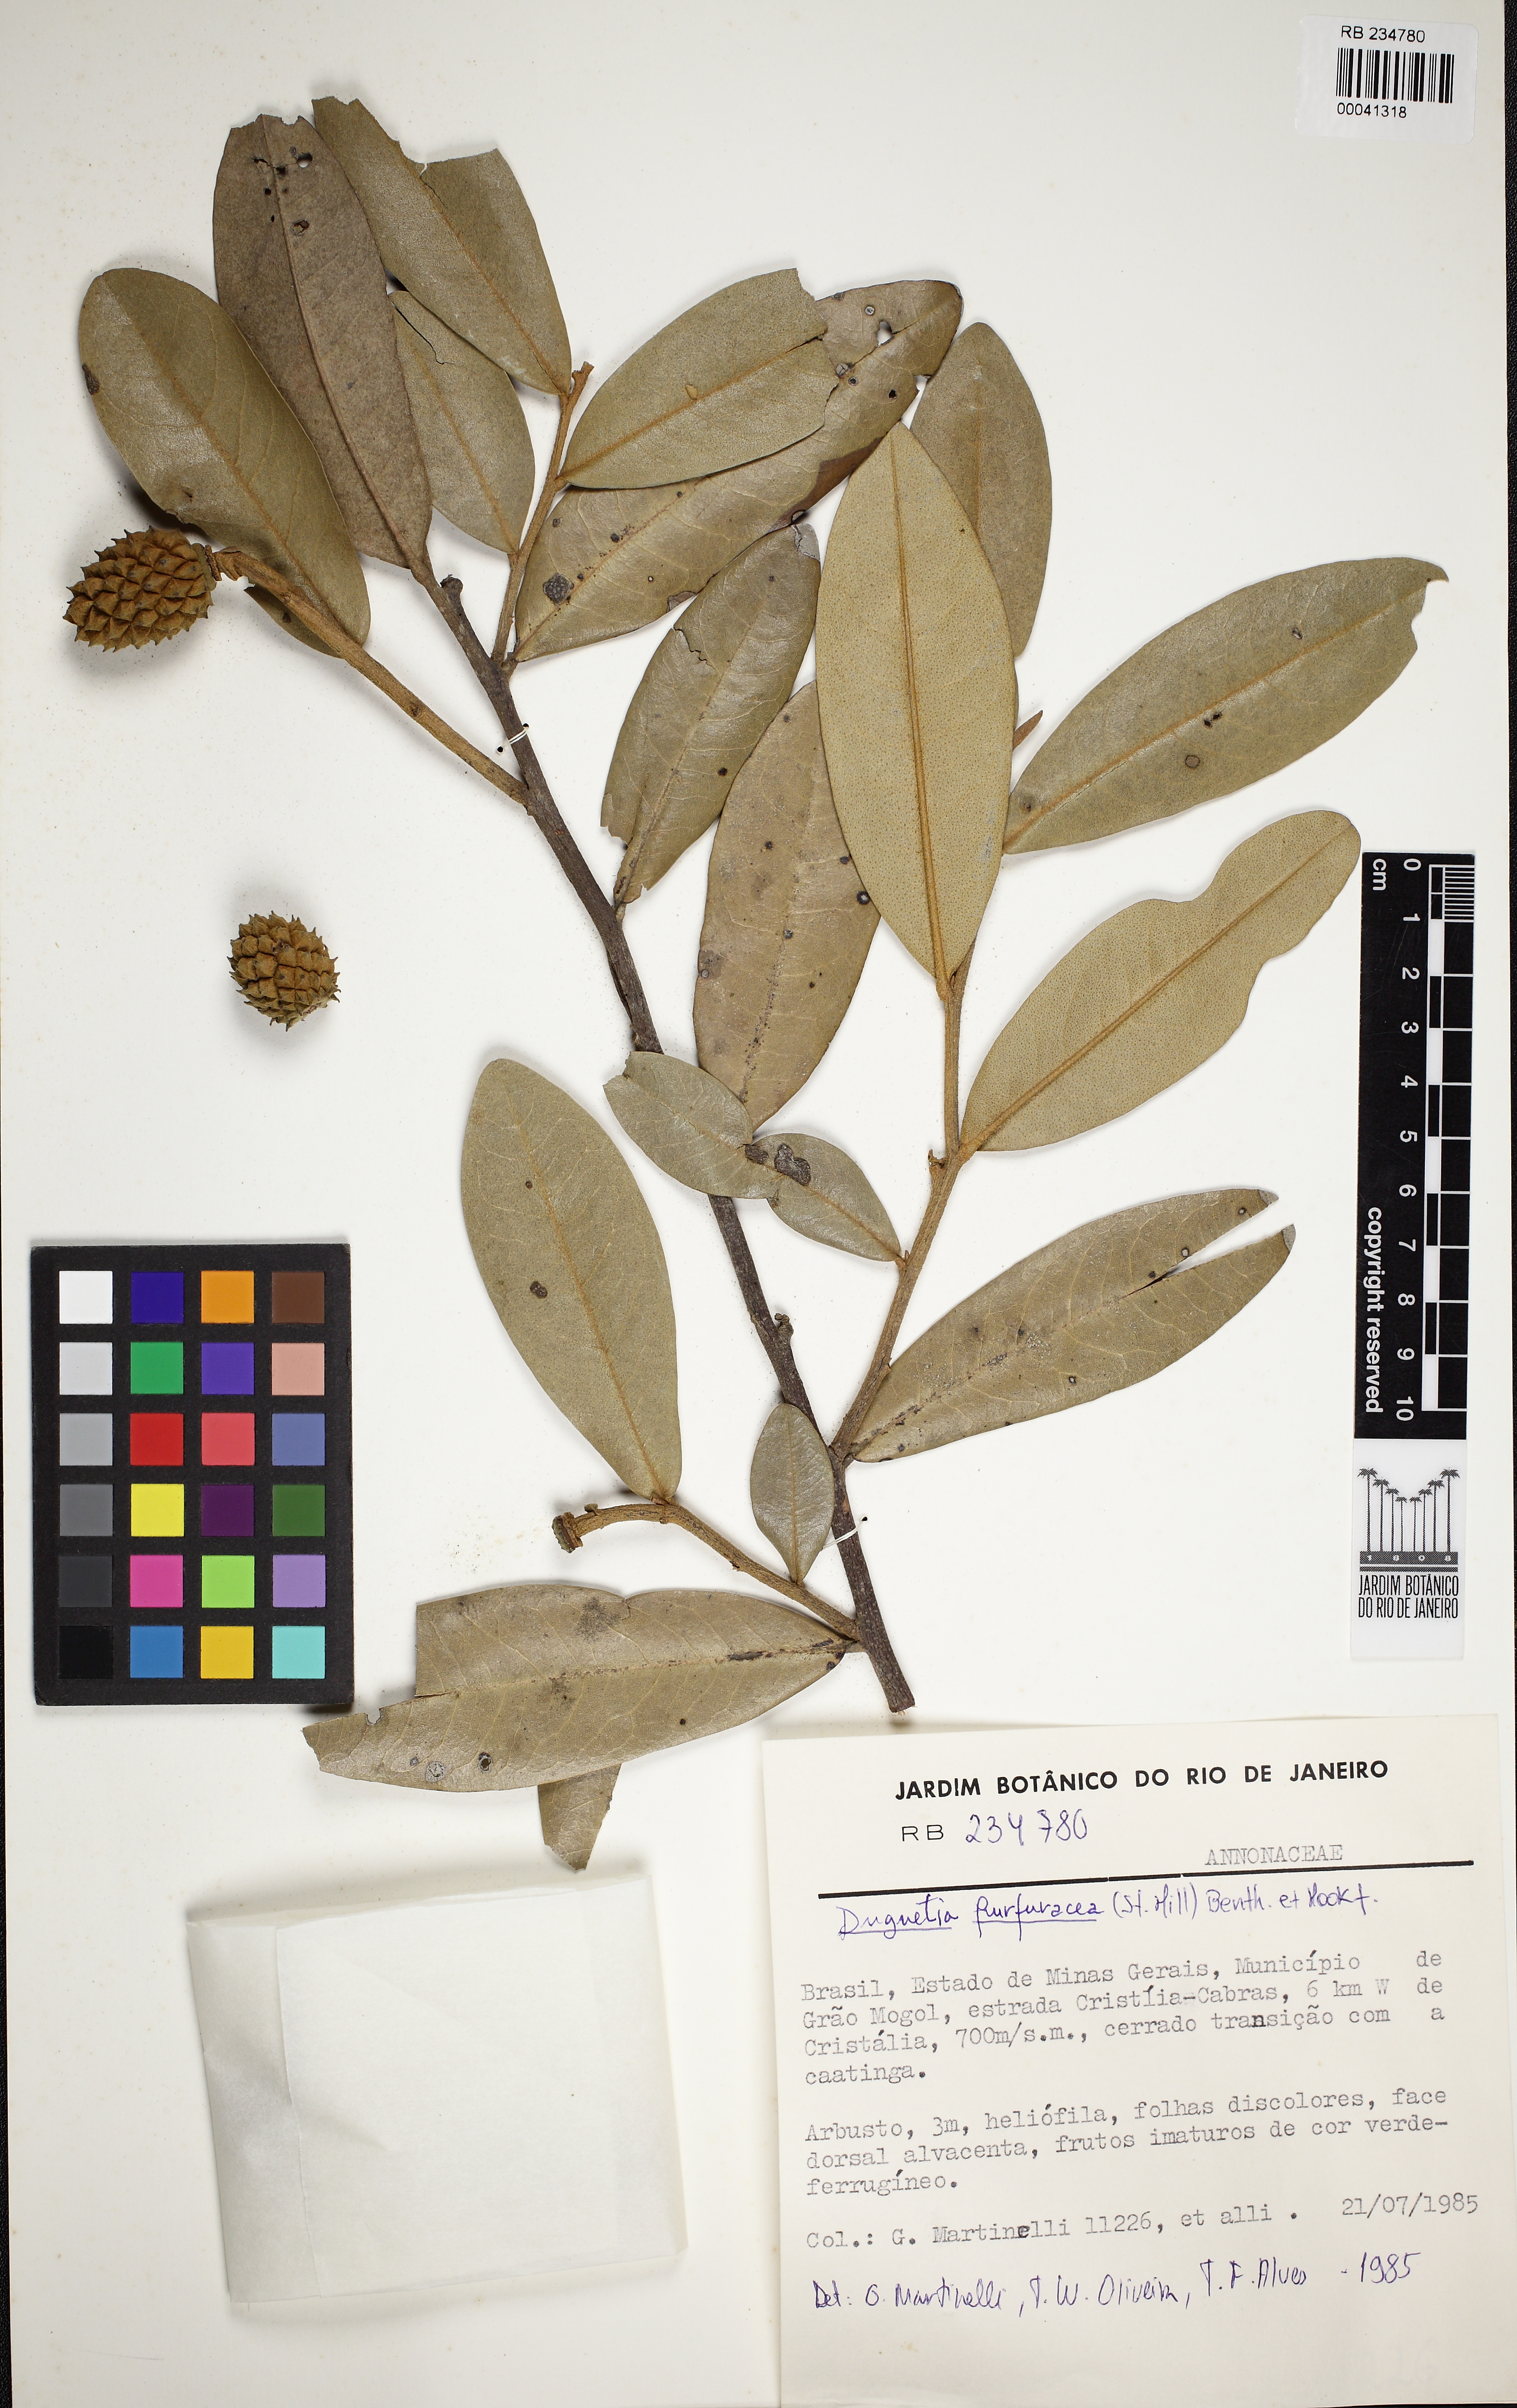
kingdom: Plantae
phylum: Tracheophyta
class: Magnoliopsida
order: Magnoliales
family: Annonaceae
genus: Duguetia
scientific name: Duguetia furfuracea
